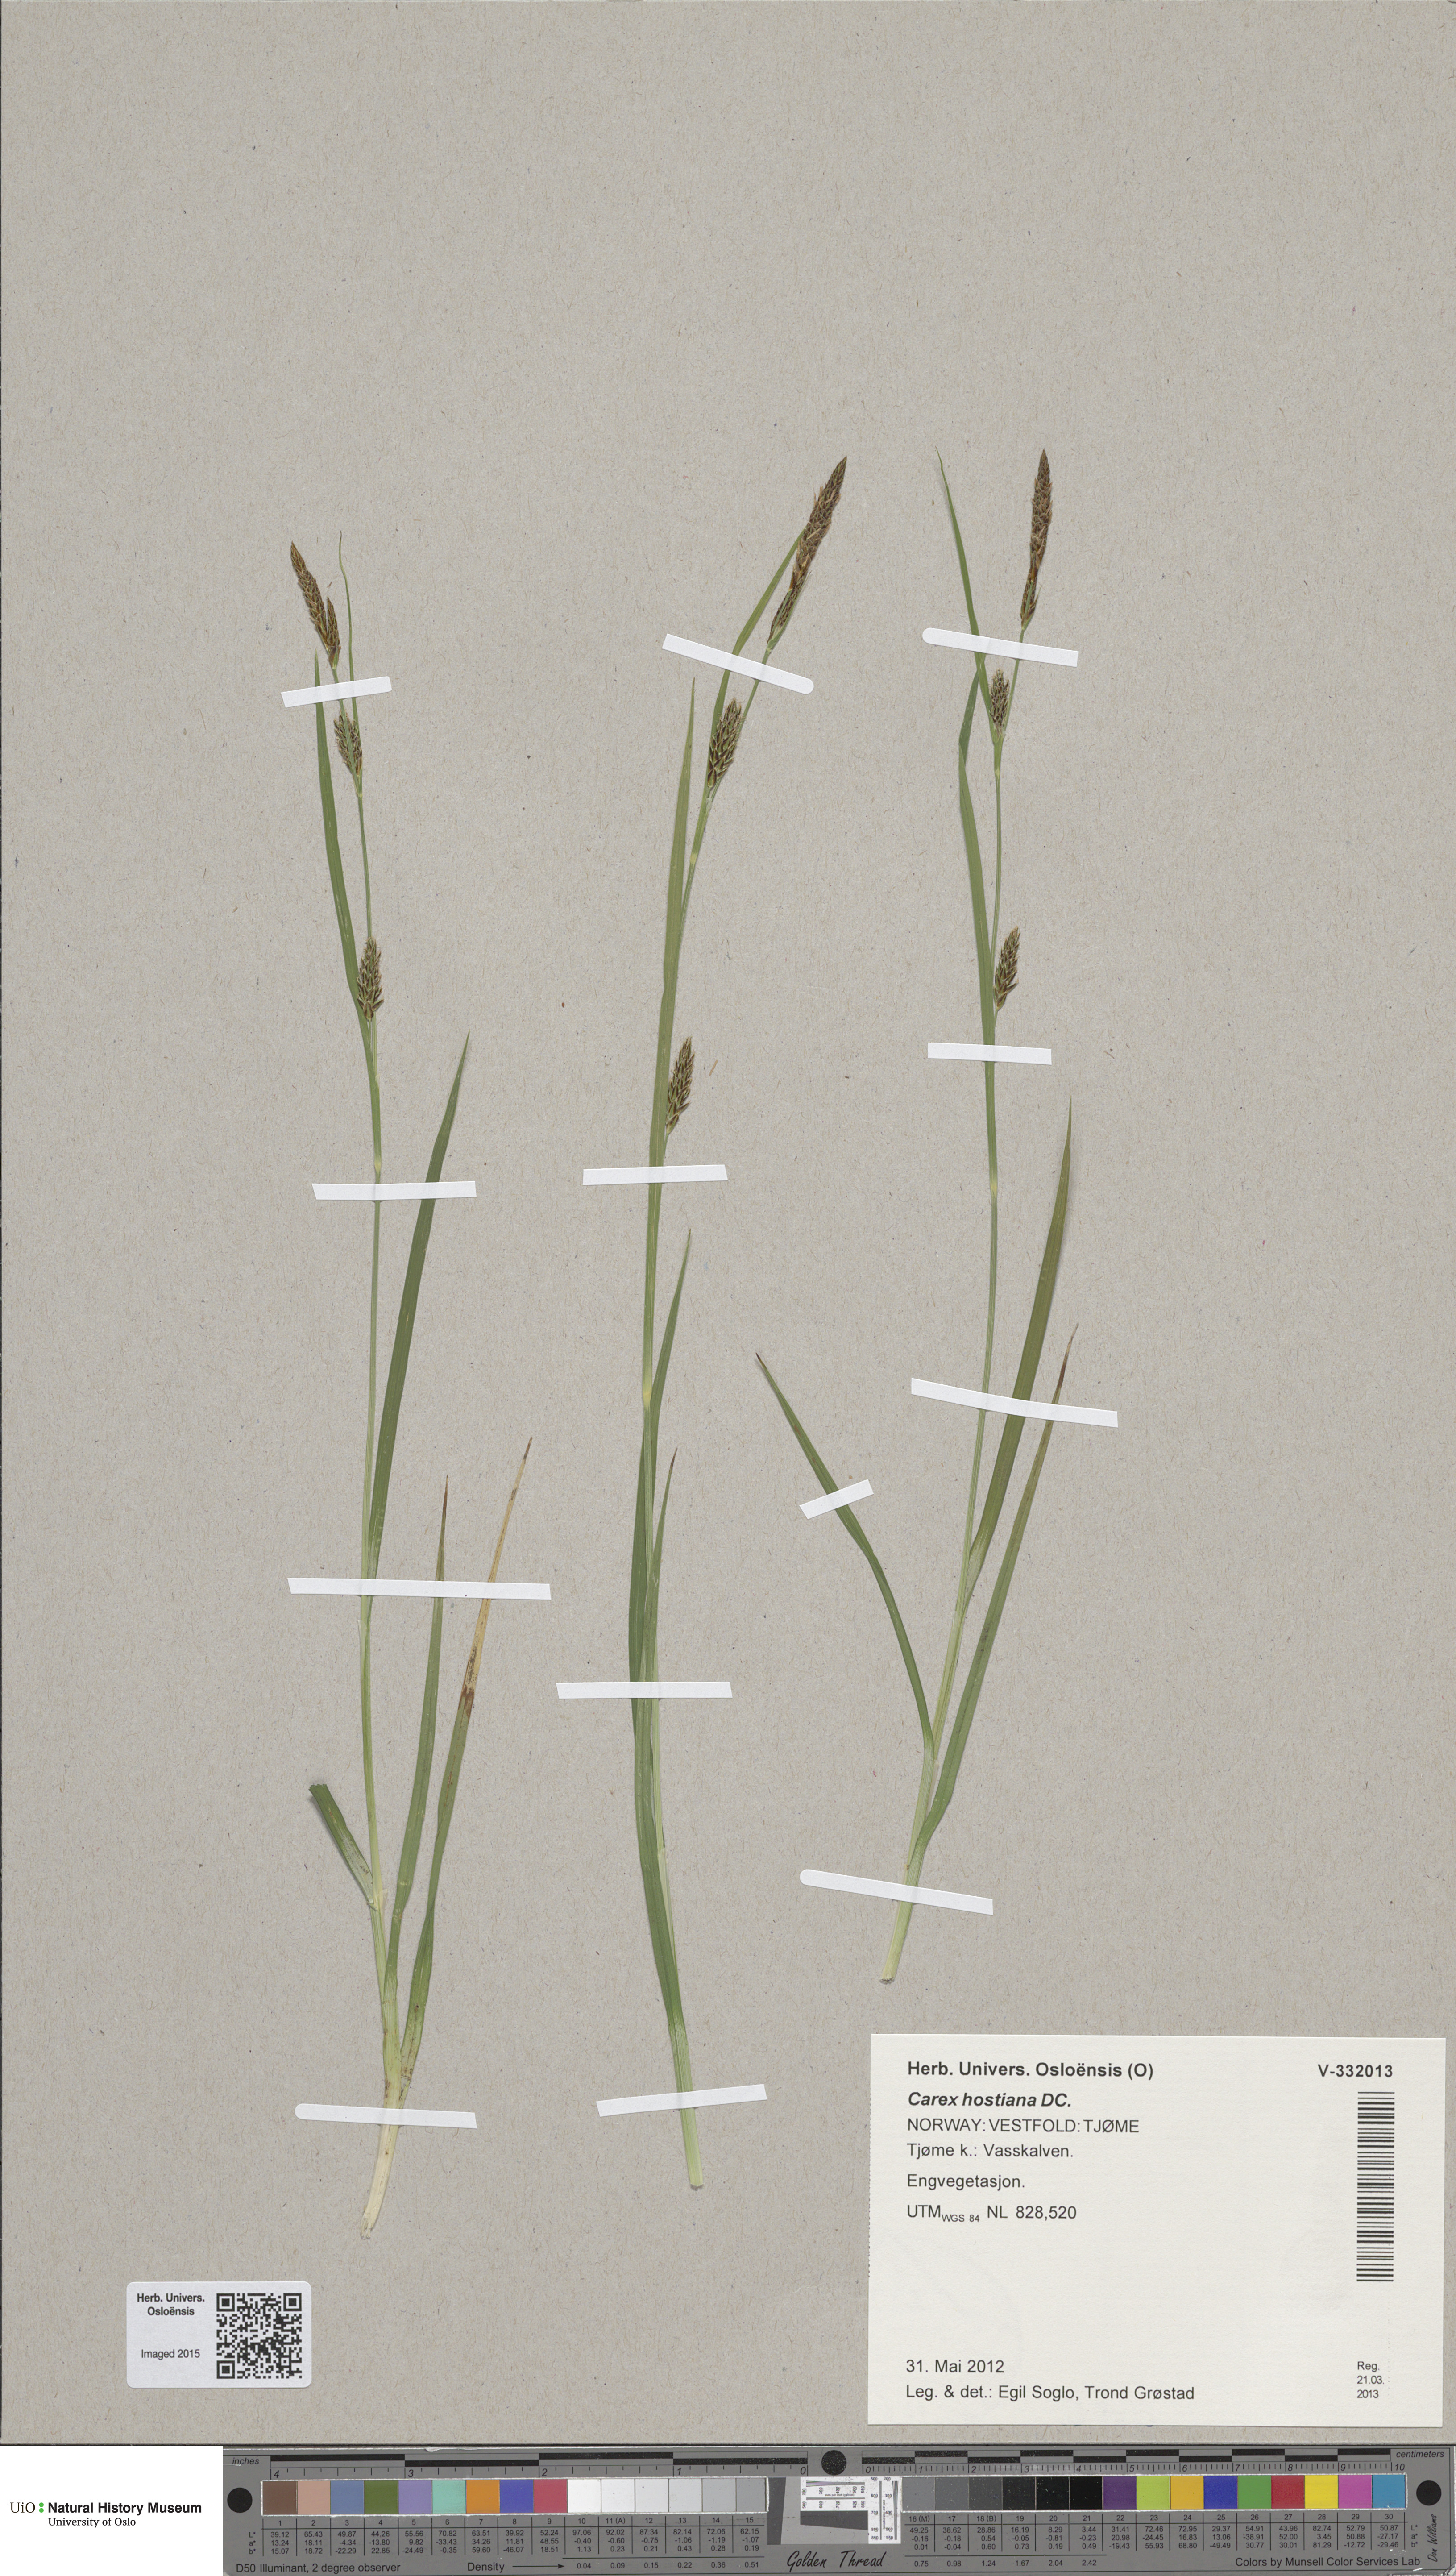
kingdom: Plantae
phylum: Tracheophyta
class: Liliopsida
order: Poales
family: Cyperaceae
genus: Carex
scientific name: Carex hostiana
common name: Tawny sedge
